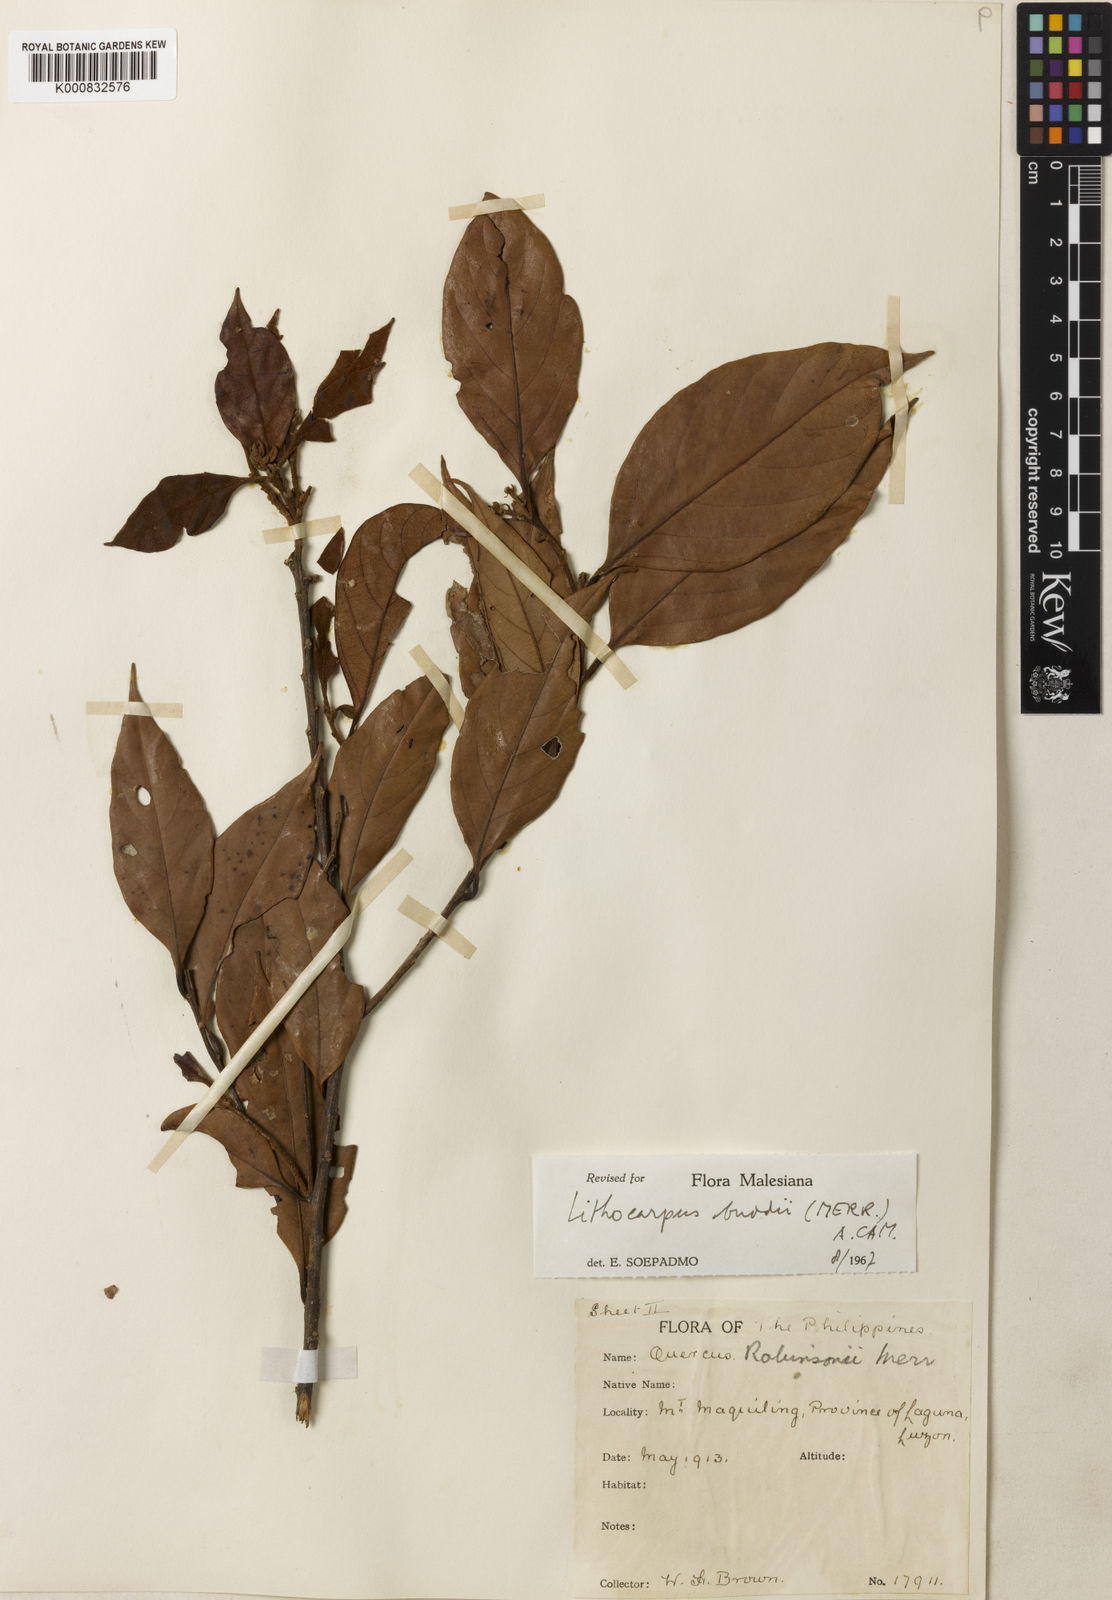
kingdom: Plantae
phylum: Tracheophyta
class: Magnoliopsida
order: Fagales
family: Fagaceae
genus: Lithocarpus
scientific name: Lithocarpus robinsonii
